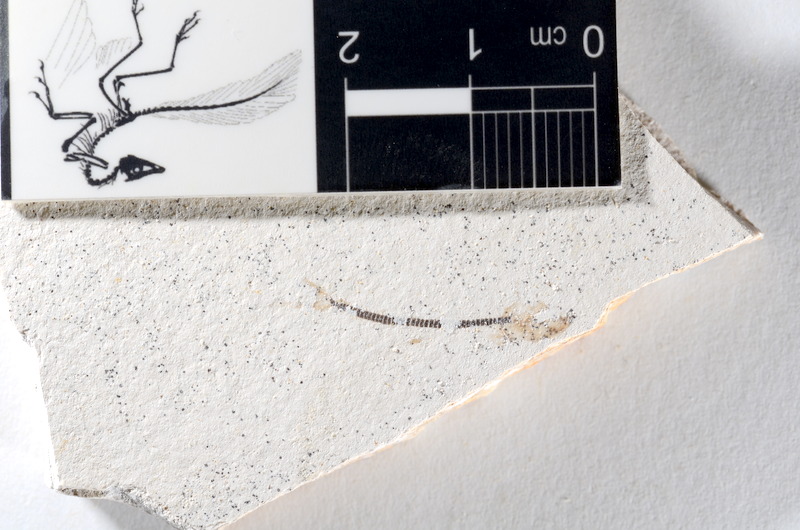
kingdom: Animalia
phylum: Chordata
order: Salmoniformes
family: Orthogonikleithridae
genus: Orthogonikleithrus
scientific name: Orthogonikleithrus hoelli
